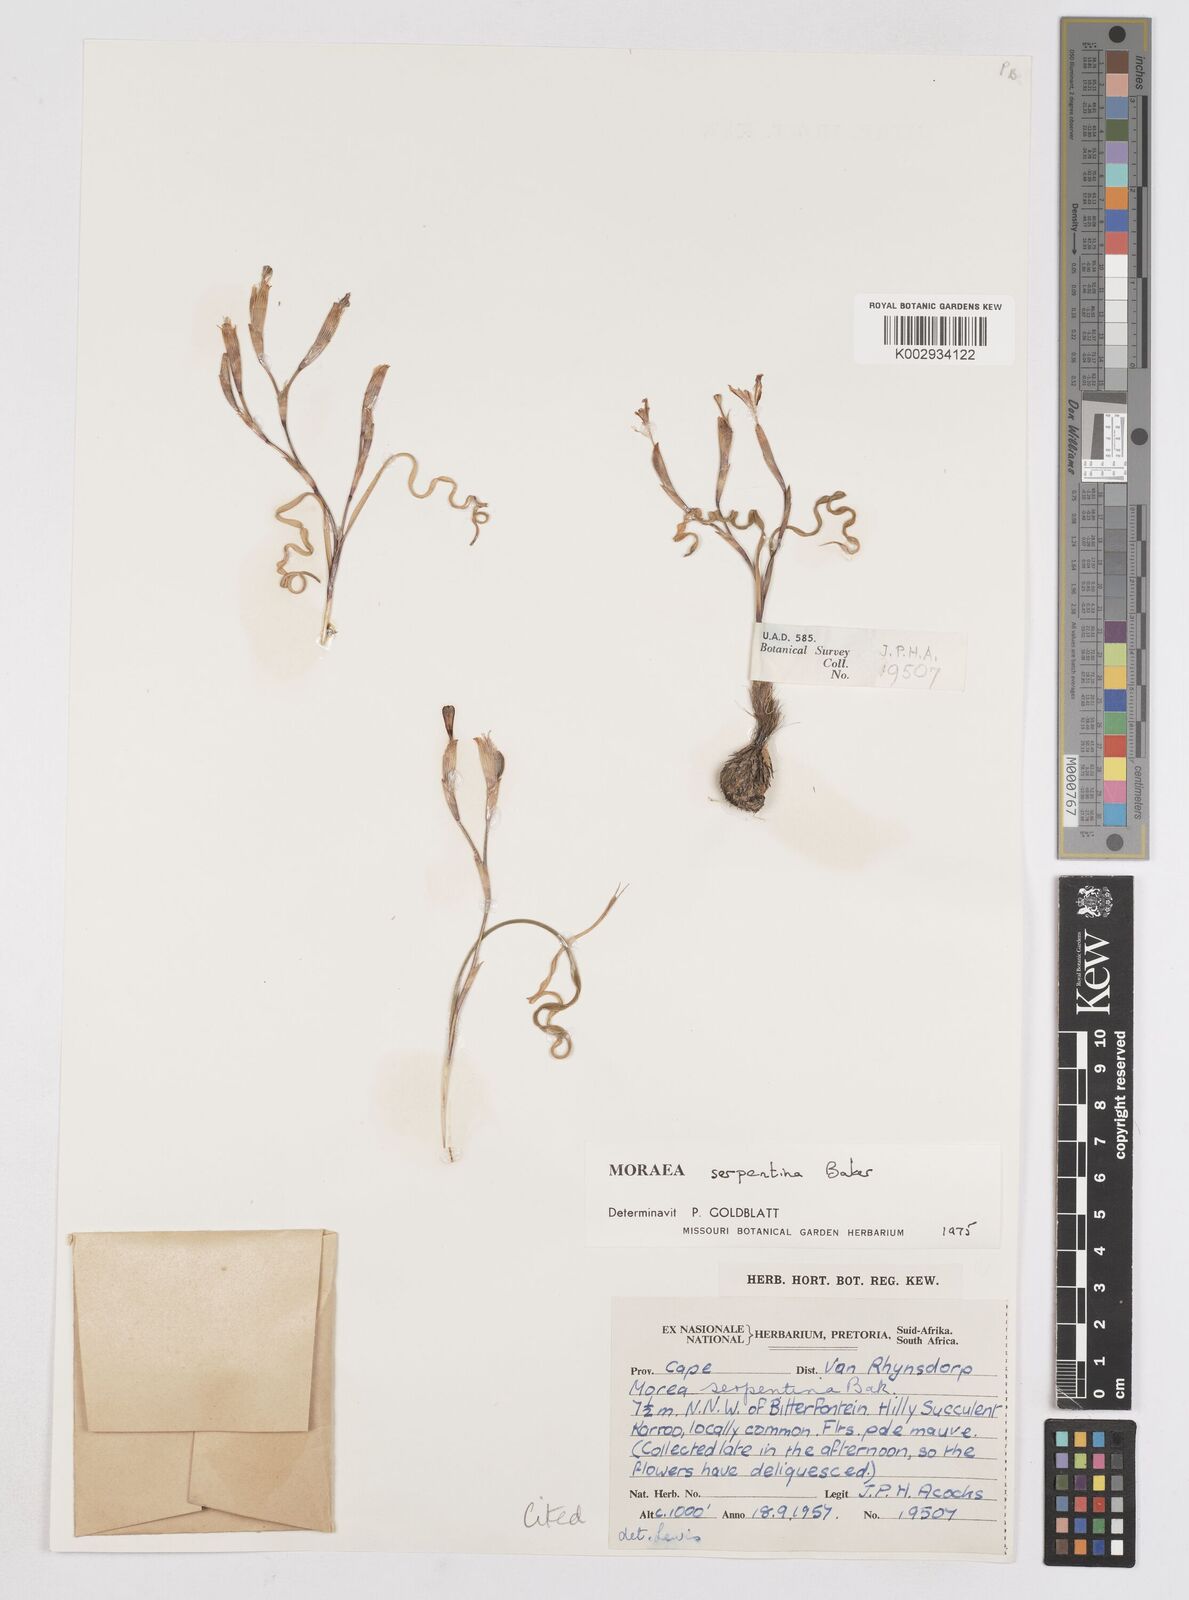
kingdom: Plantae
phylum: Tracheophyta
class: Liliopsida
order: Asparagales
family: Iridaceae
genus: Moraea
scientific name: Moraea serpentina
